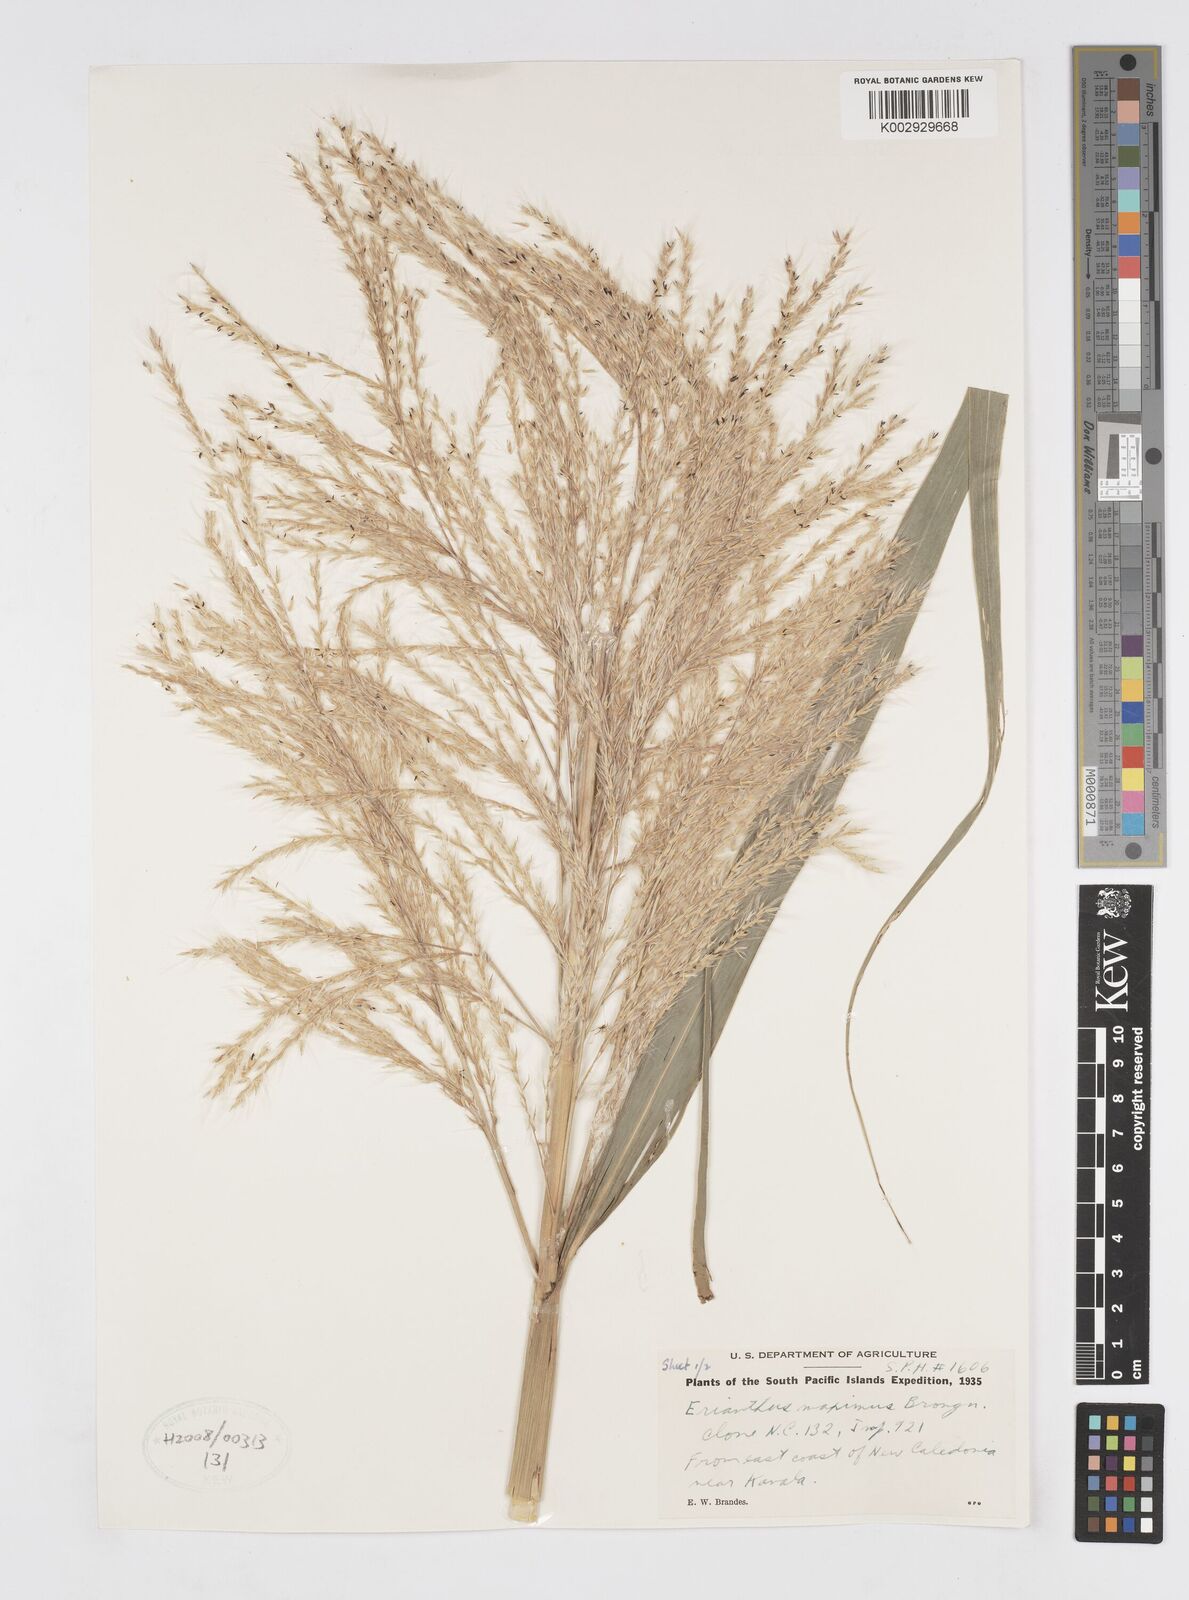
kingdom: Plantae
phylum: Tracheophyta
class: Liliopsida
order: Poales
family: Poaceae
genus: Saccharum
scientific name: Saccharum maximum
